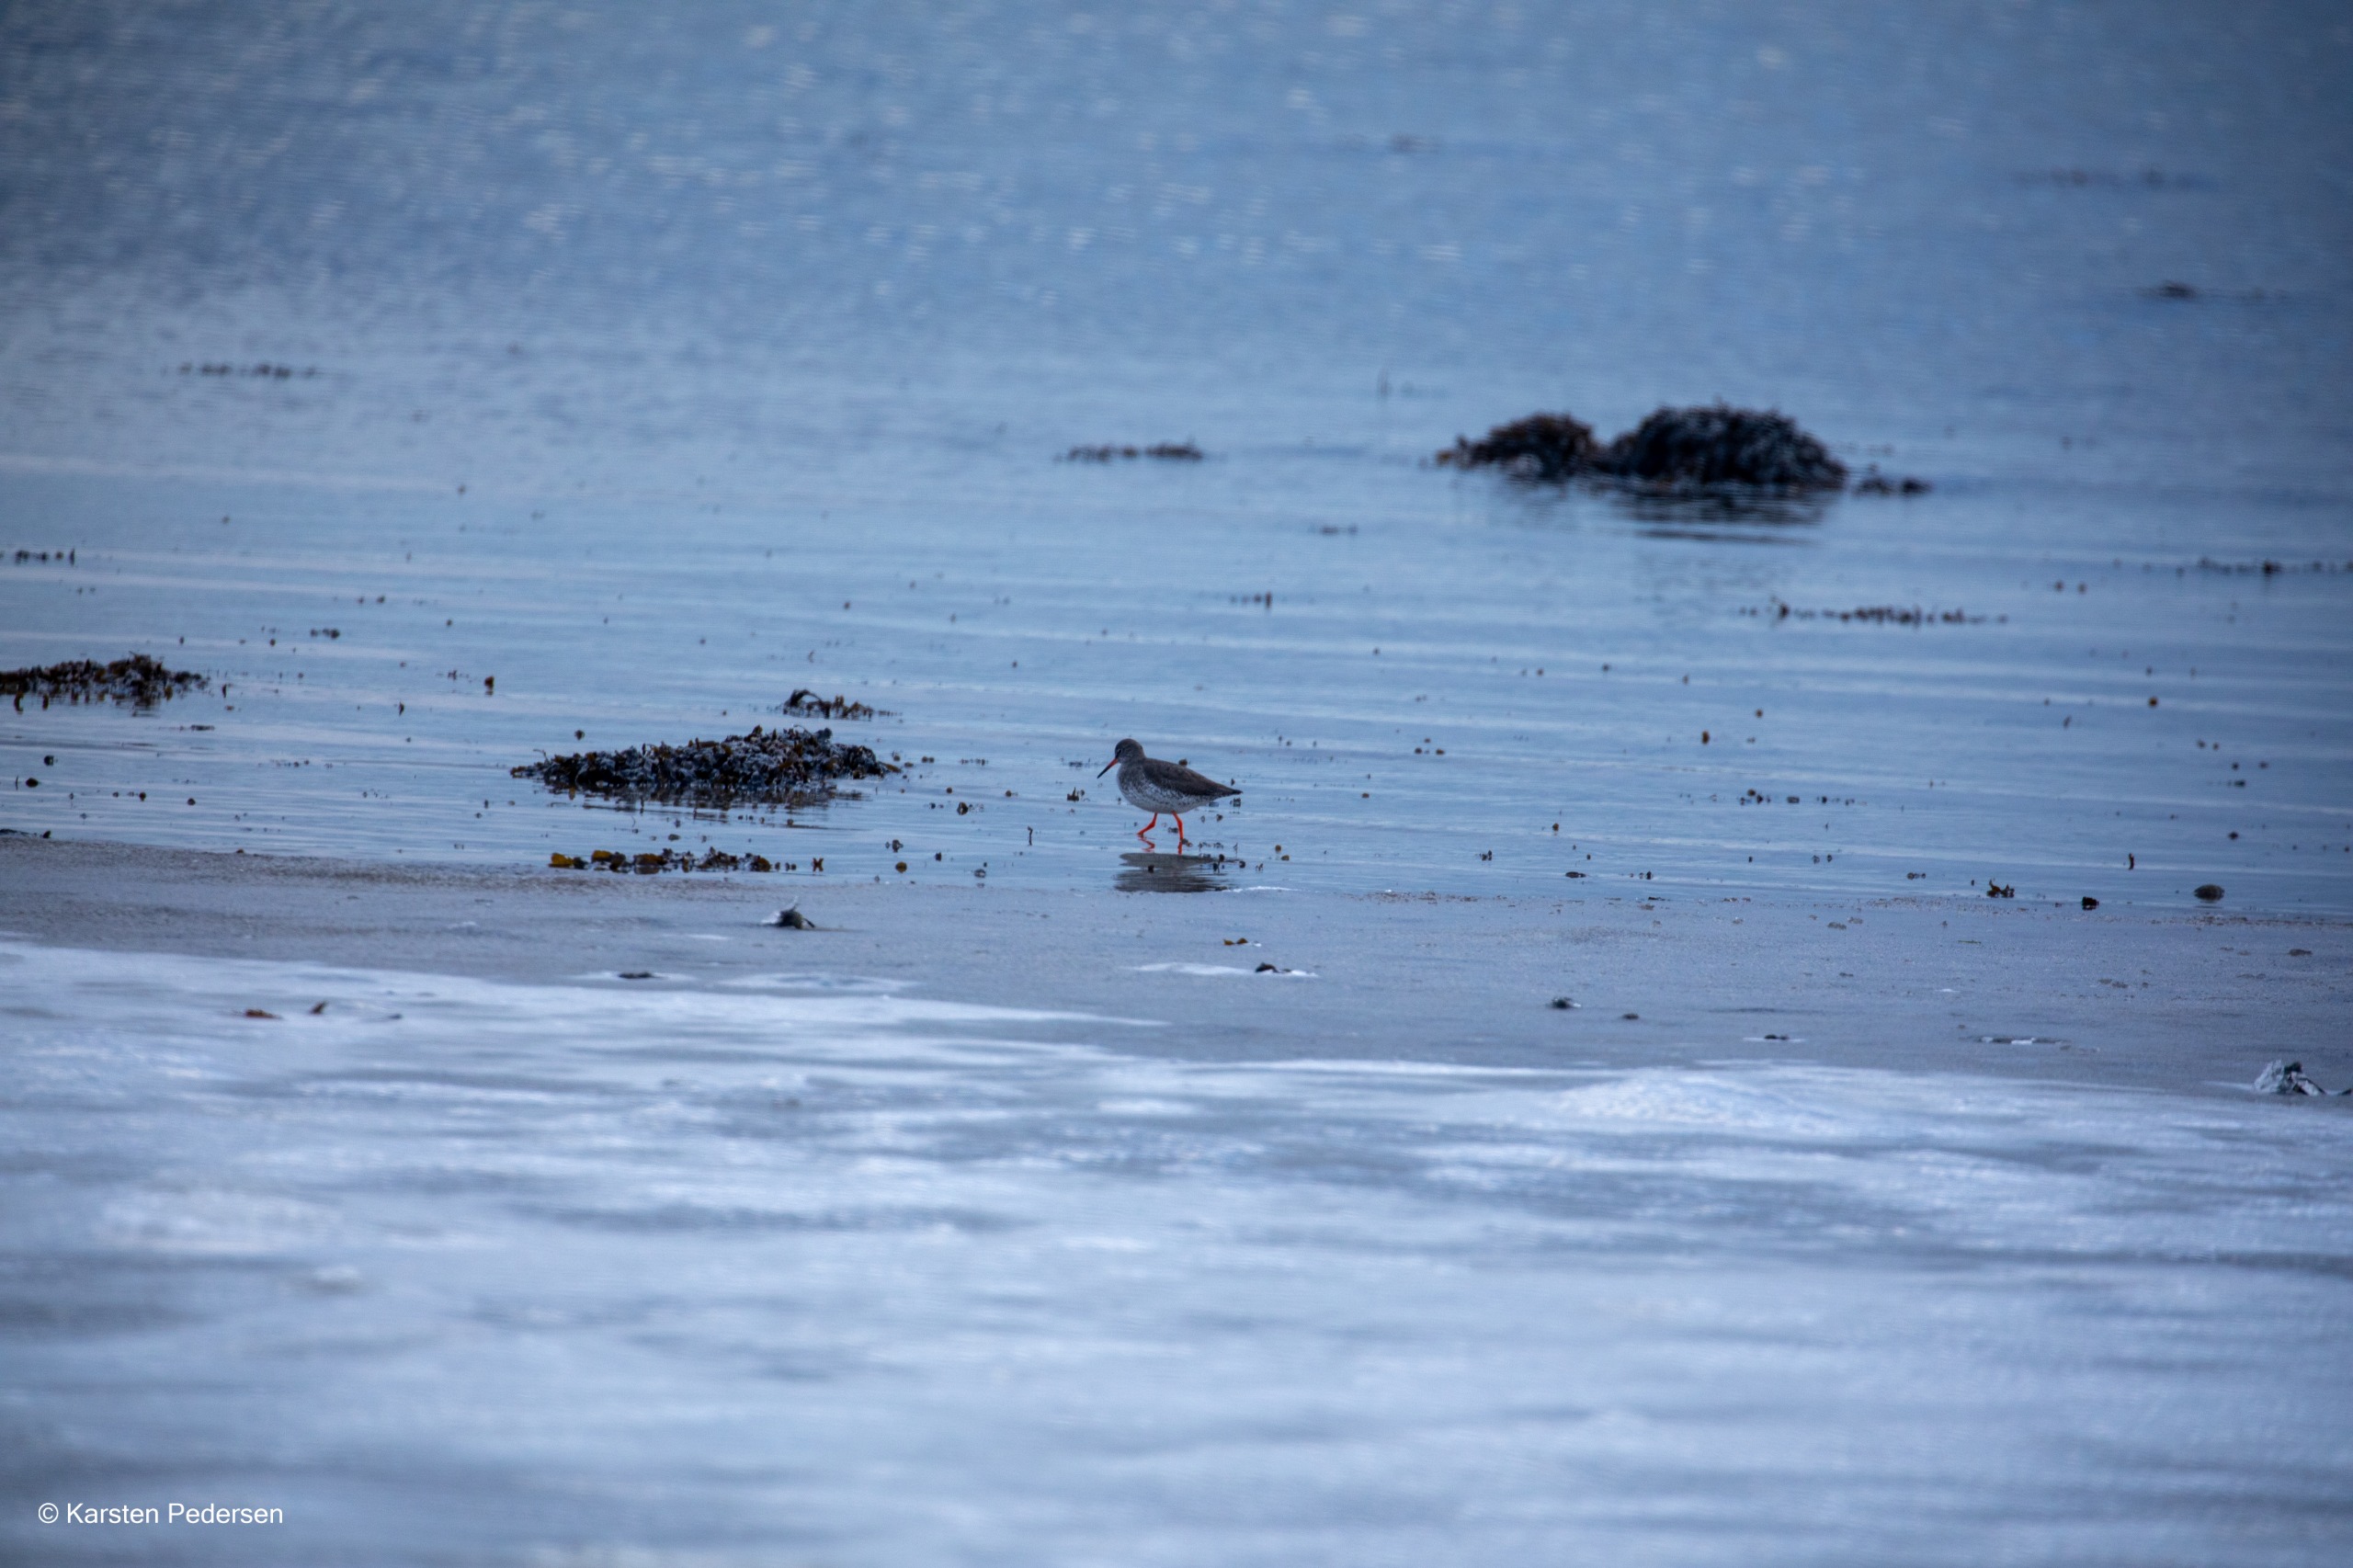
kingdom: Animalia
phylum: Chordata
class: Aves
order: Charadriiformes
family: Scolopacidae
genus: Tringa
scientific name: Tringa totanus
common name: Islandsk rødben
